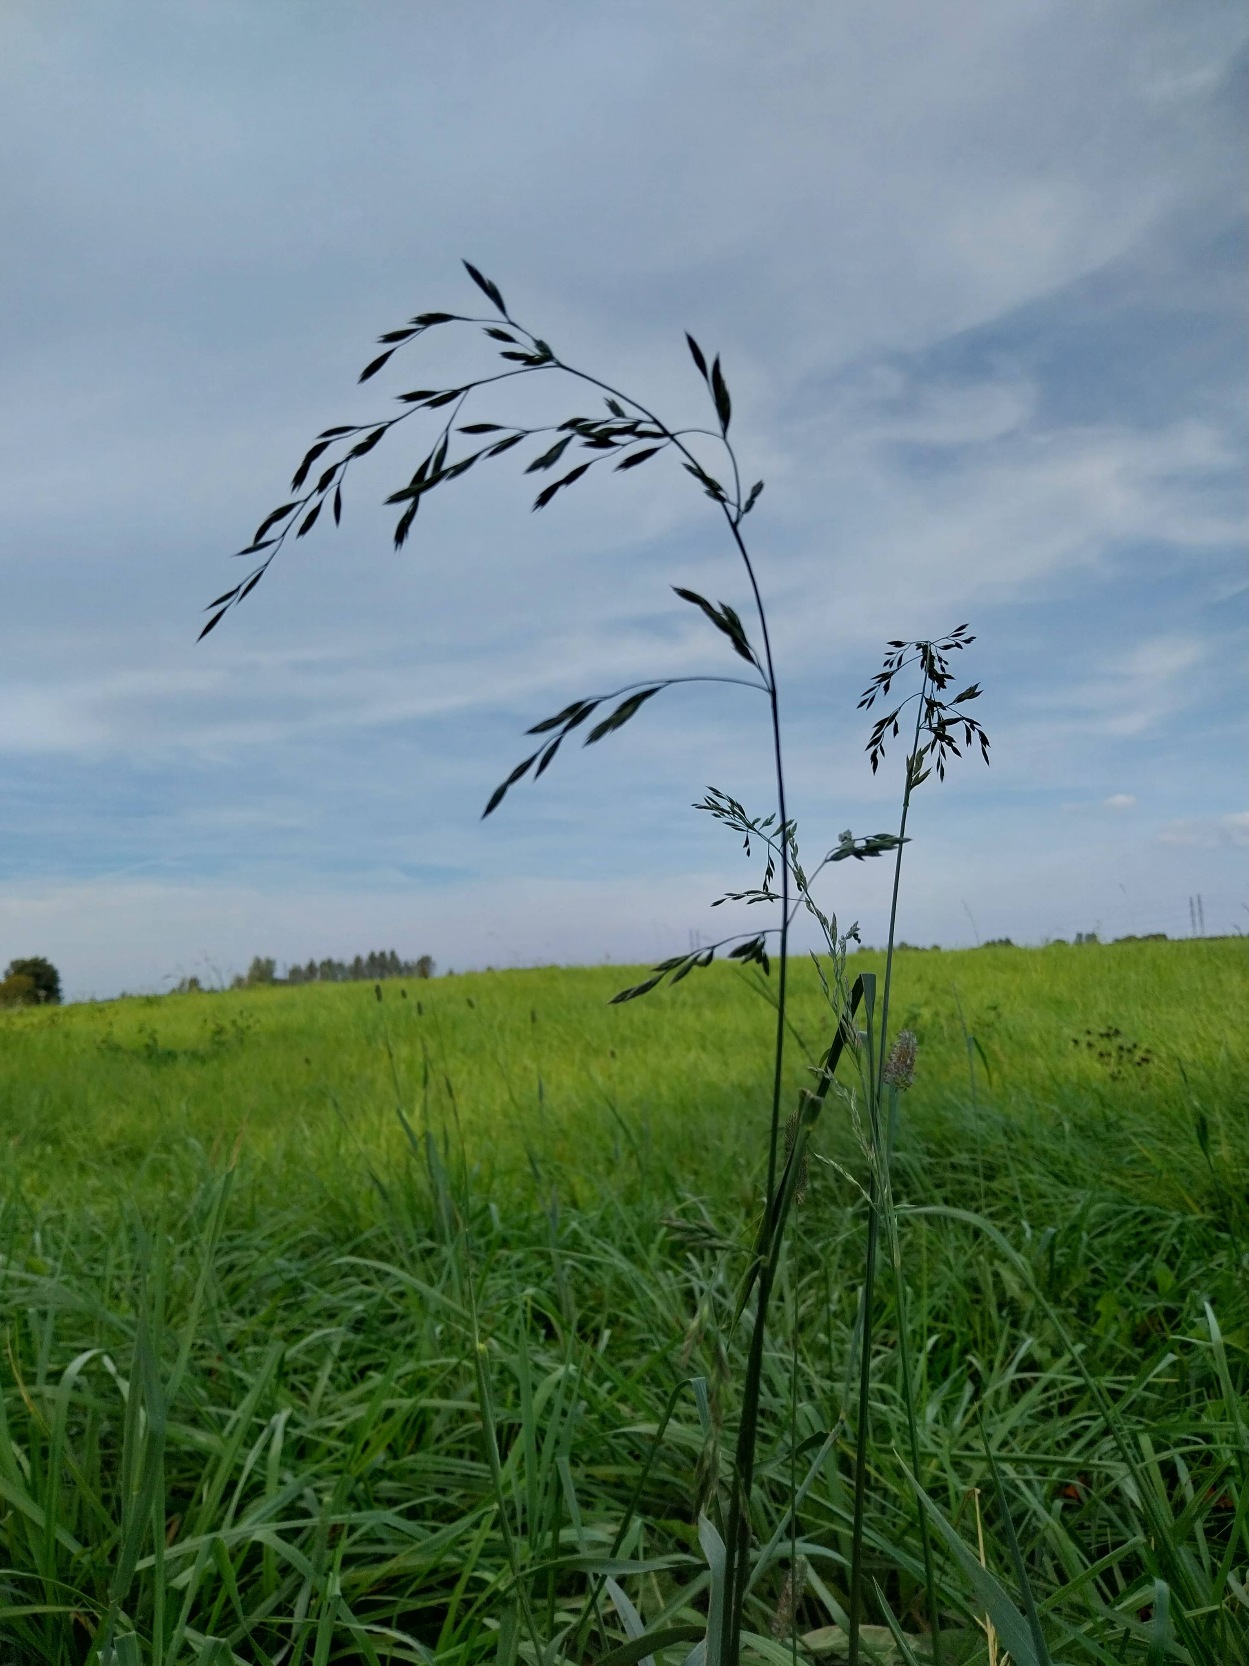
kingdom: Plantae
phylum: Tracheophyta
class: Liliopsida
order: Poales
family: Poaceae
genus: Lolium
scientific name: Lolium arundinaceum
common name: Strand-svingel
